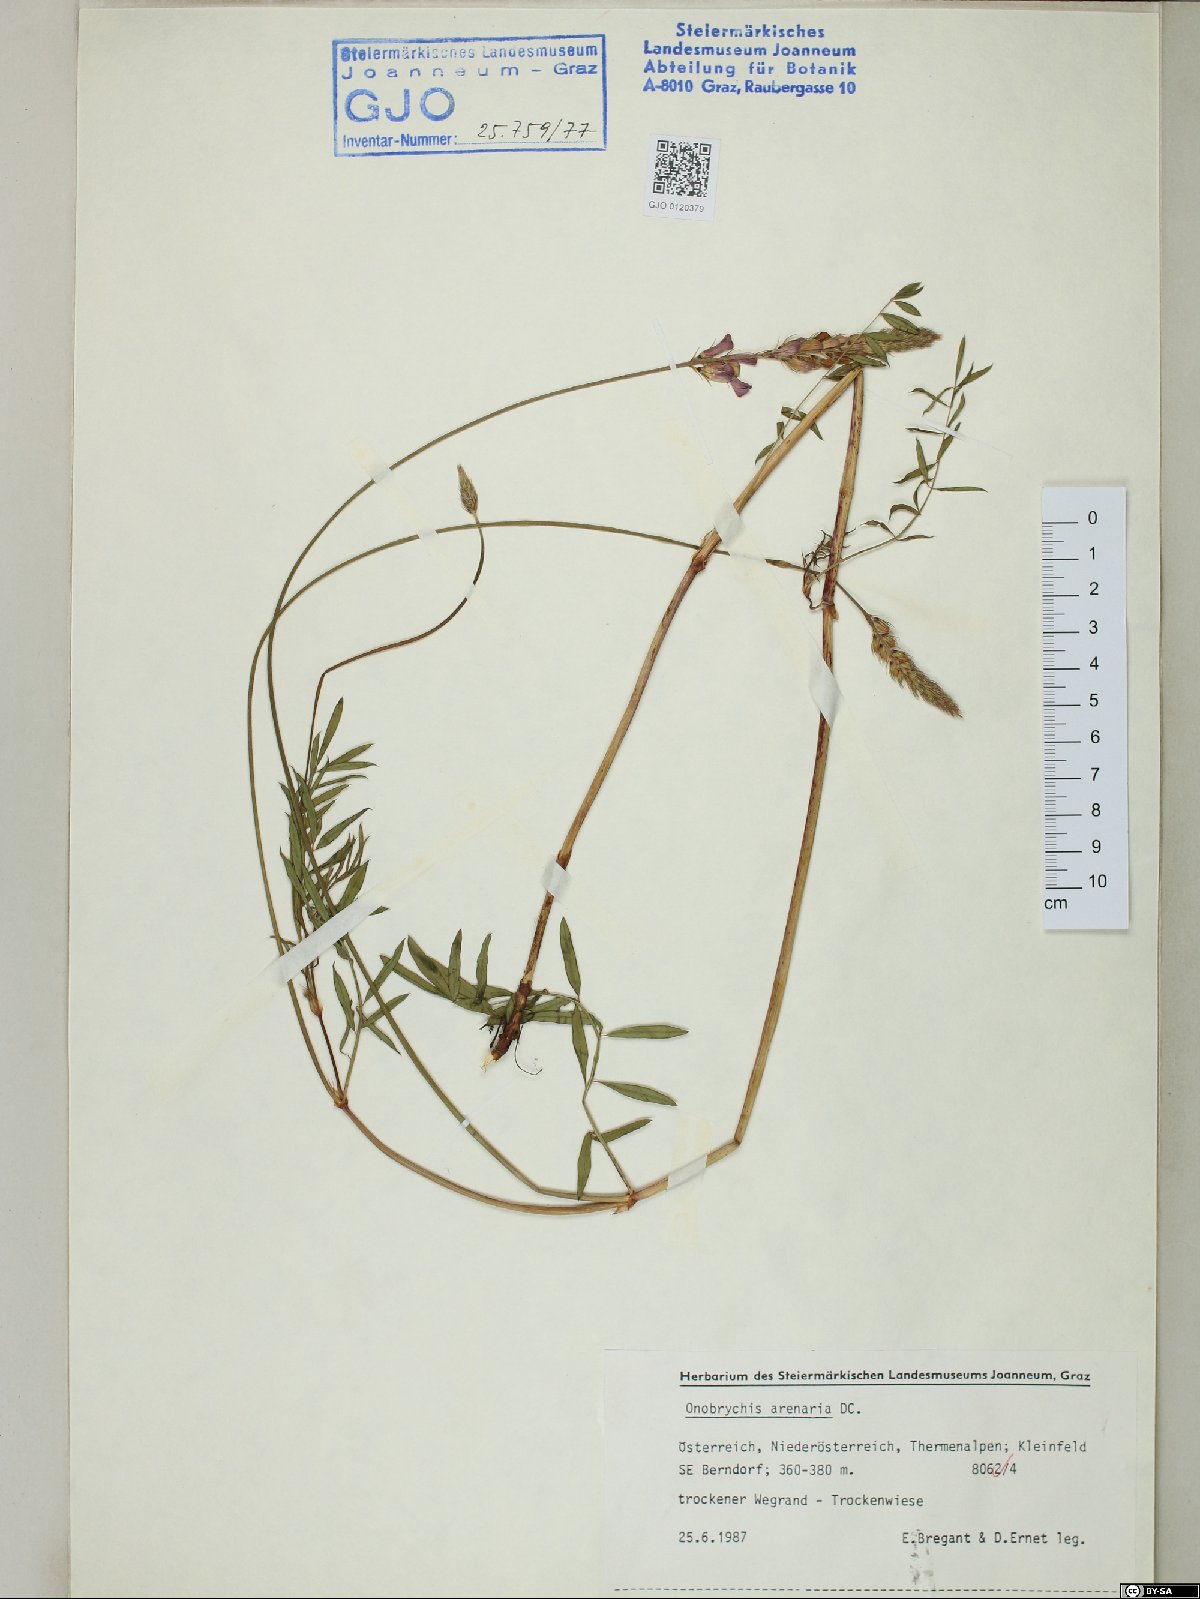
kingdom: Plantae
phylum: Tracheophyta
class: Magnoliopsida
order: Fabales
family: Fabaceae
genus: Onobrychis
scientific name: Onobrychis arenaria
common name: Sand esparcet
